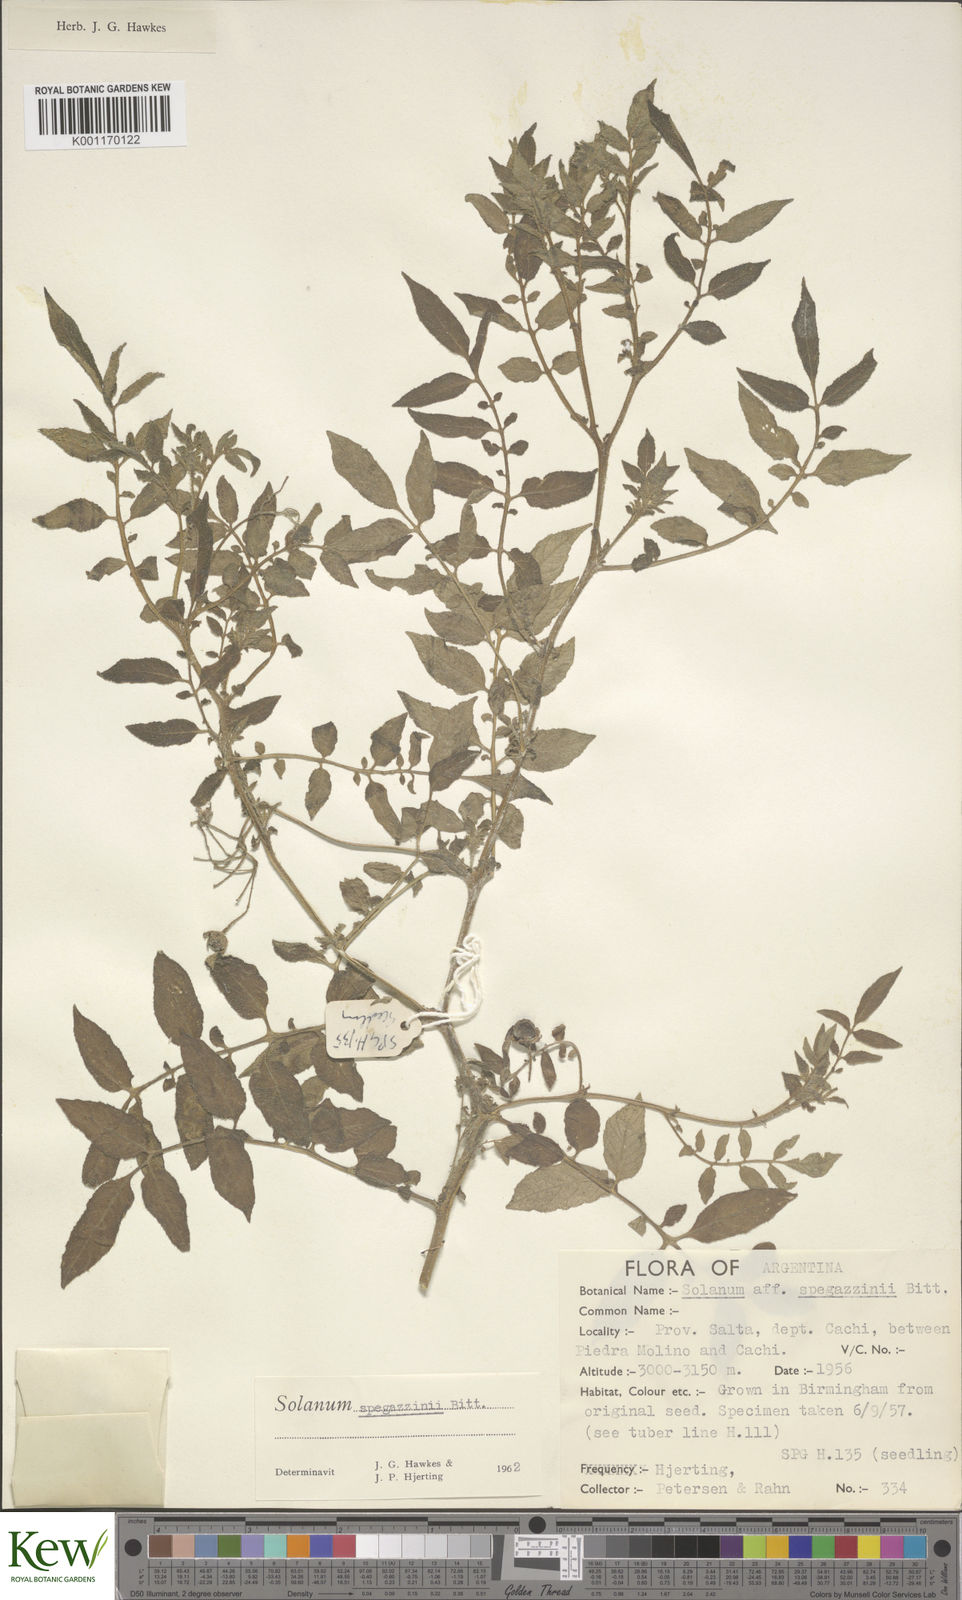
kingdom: Plantae
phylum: Tracheophyta
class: Magnoliopsida
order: Solanales
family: Solanaceae
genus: Solanum
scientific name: Solanum brevicaule
